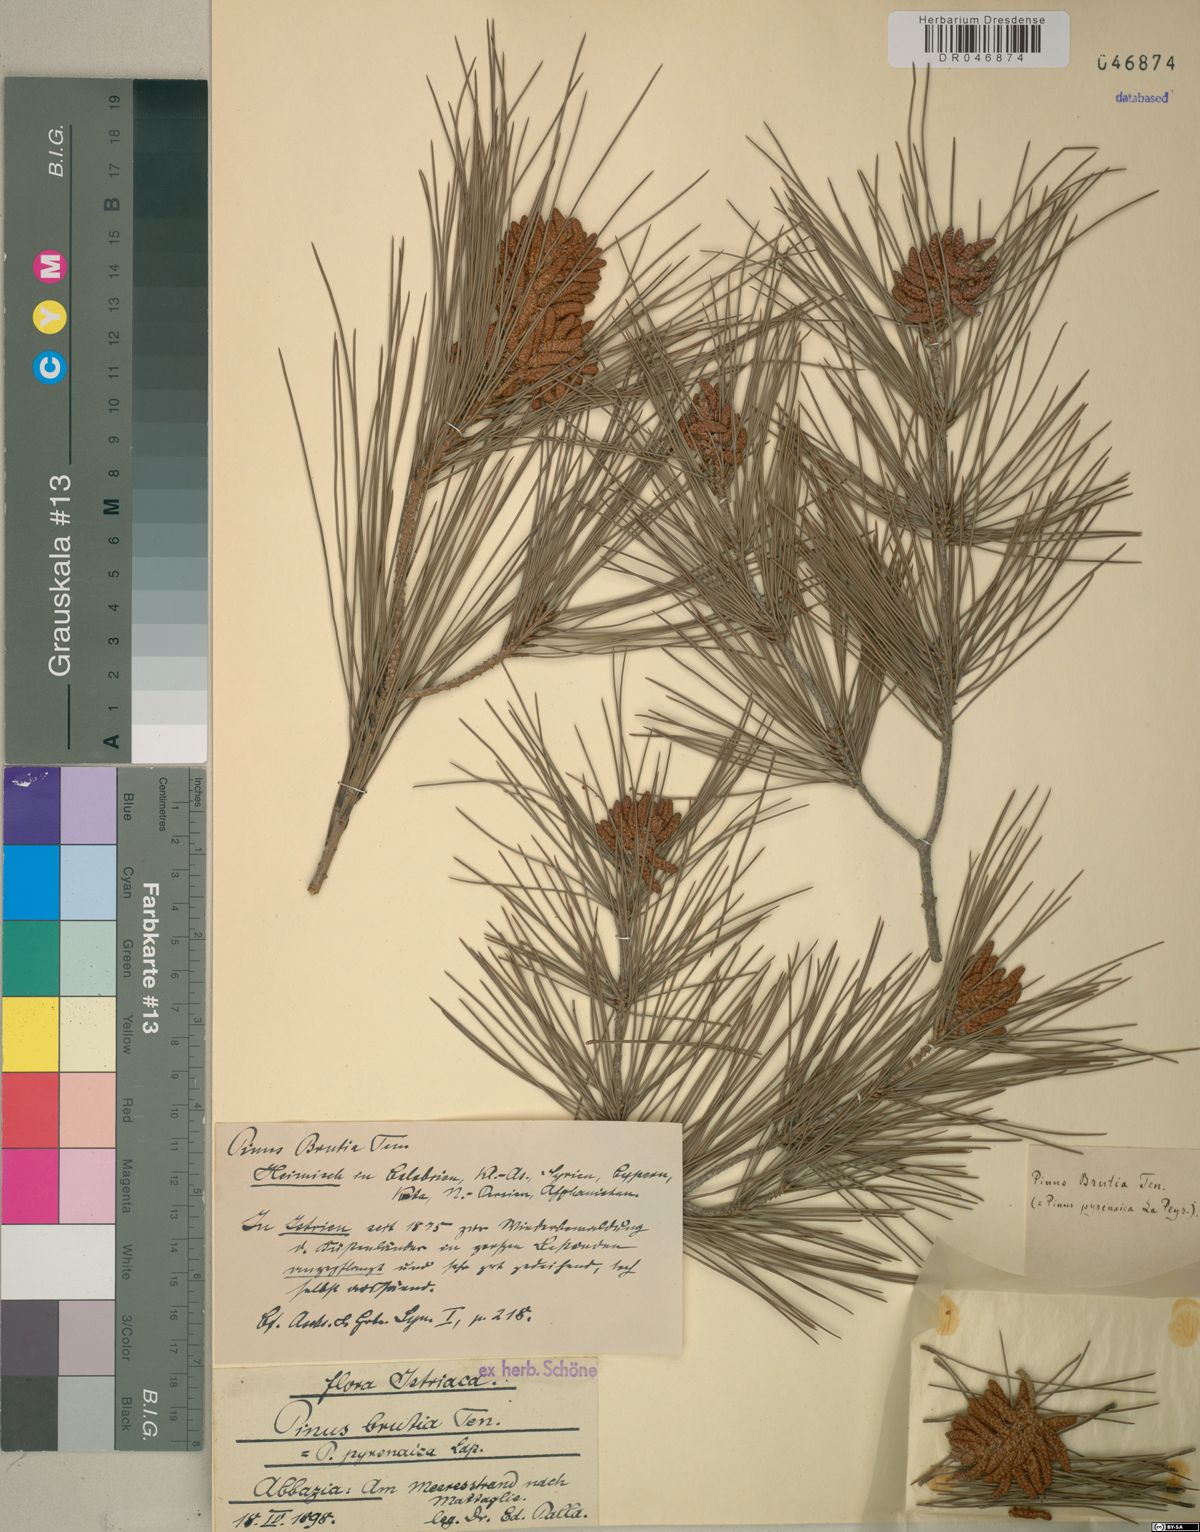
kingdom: Plantae
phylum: Tracheophyta
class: Pinopsida
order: Pinales
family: Pinaceae
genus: Pinus
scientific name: Pinus brutia
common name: Turkish pine
